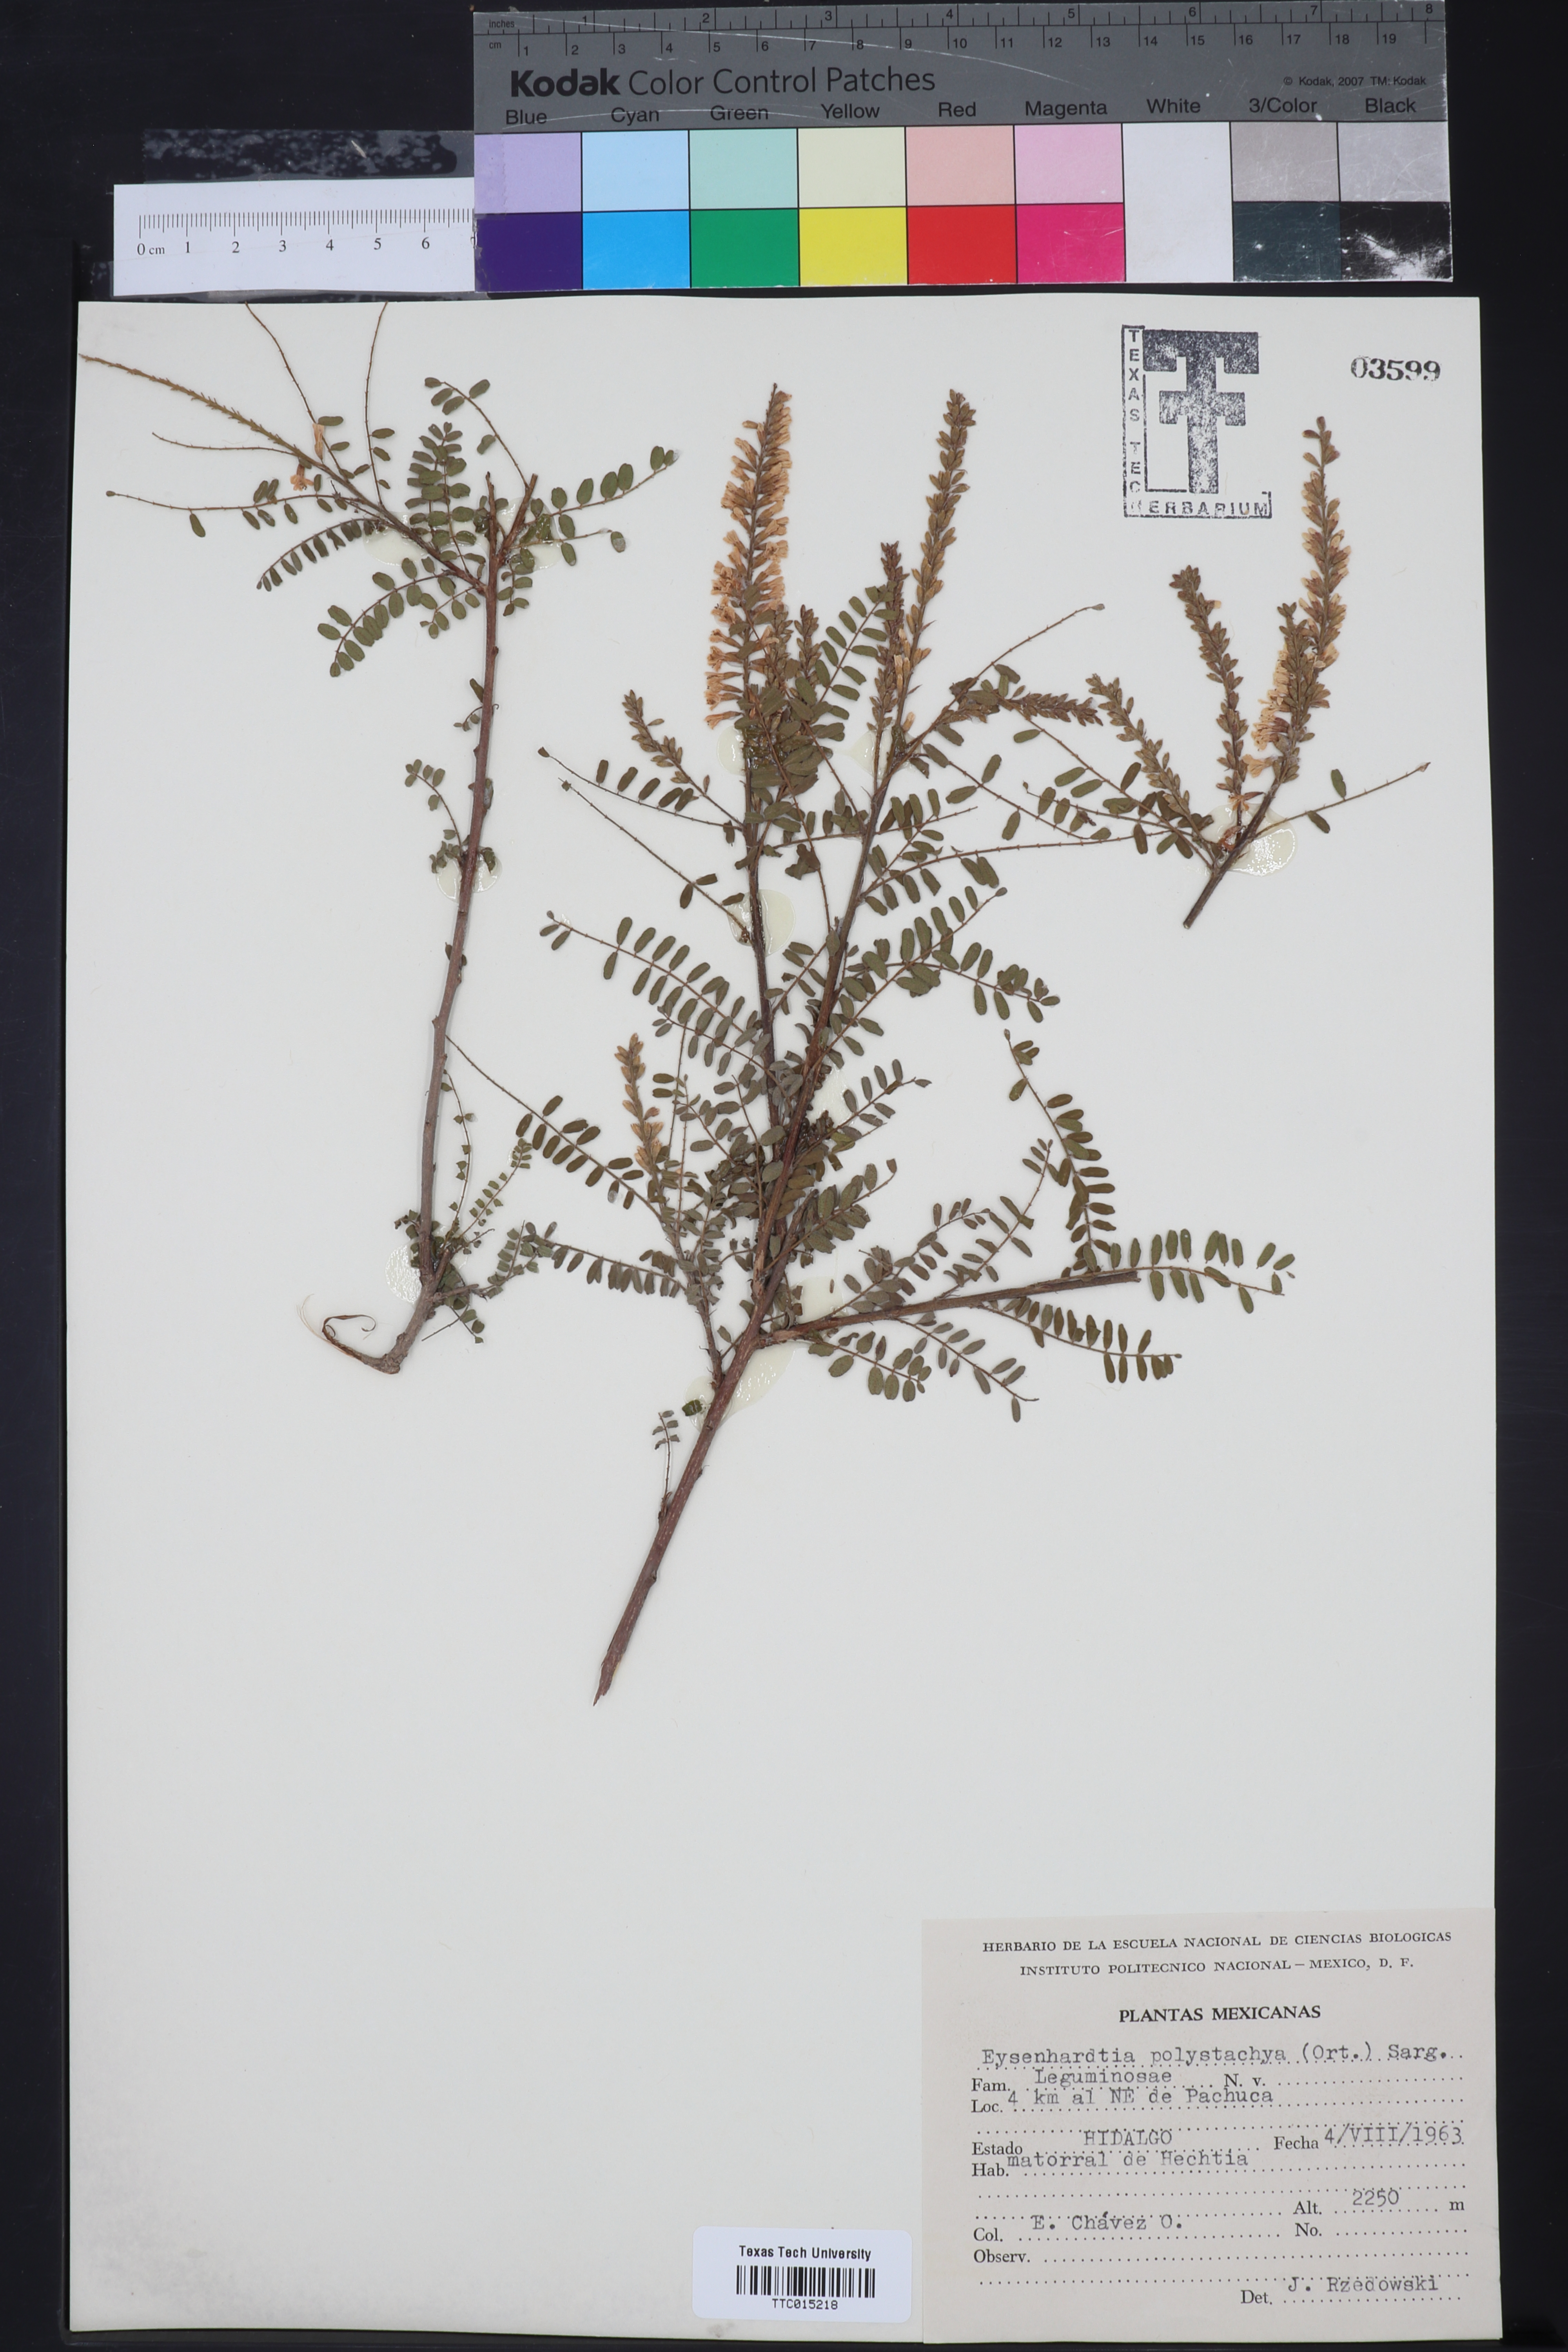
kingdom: Plantae
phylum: Tracheophyta
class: Magnoliopsida
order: Fabales
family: Fabaceae
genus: Eysenhardtia
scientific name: Eysenhardtia polystachya
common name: Kidneywood
